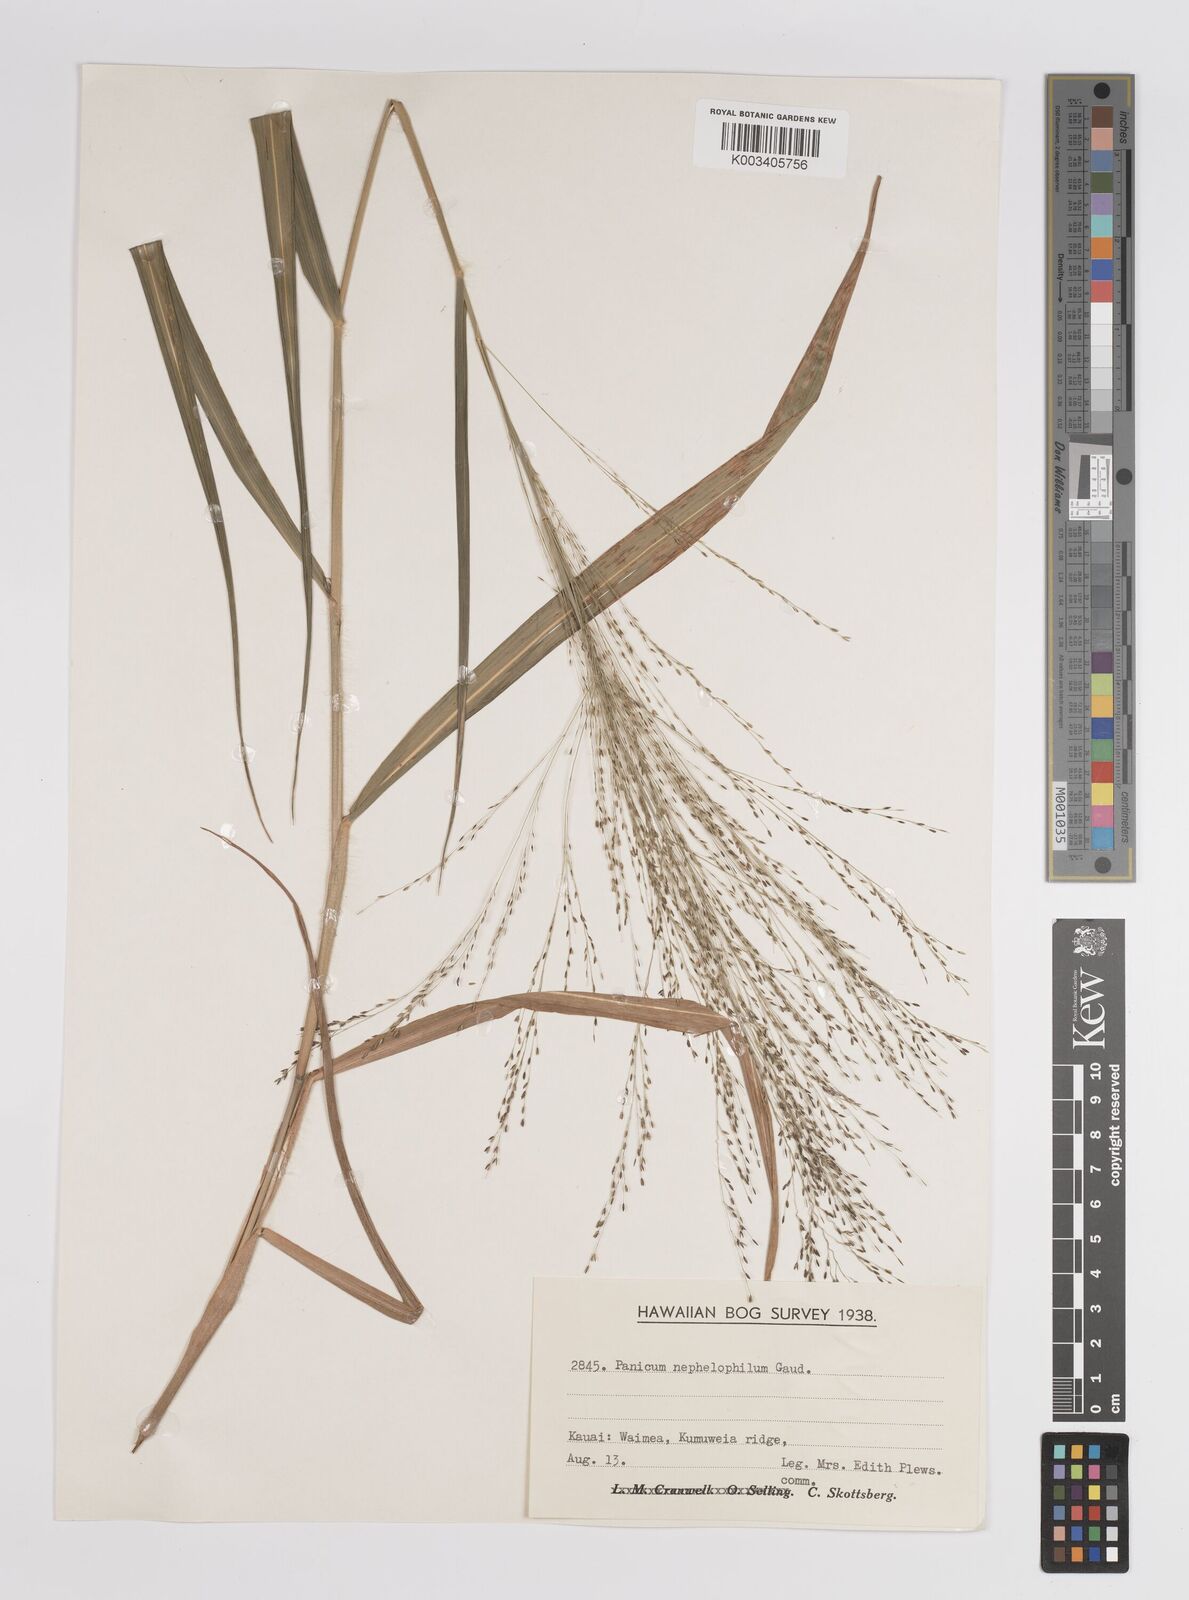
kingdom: Plantae
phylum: Tracheophyta
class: Liliopsida
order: Poales
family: Poaceae
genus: Panicum
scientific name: Panicum nephelophilum
